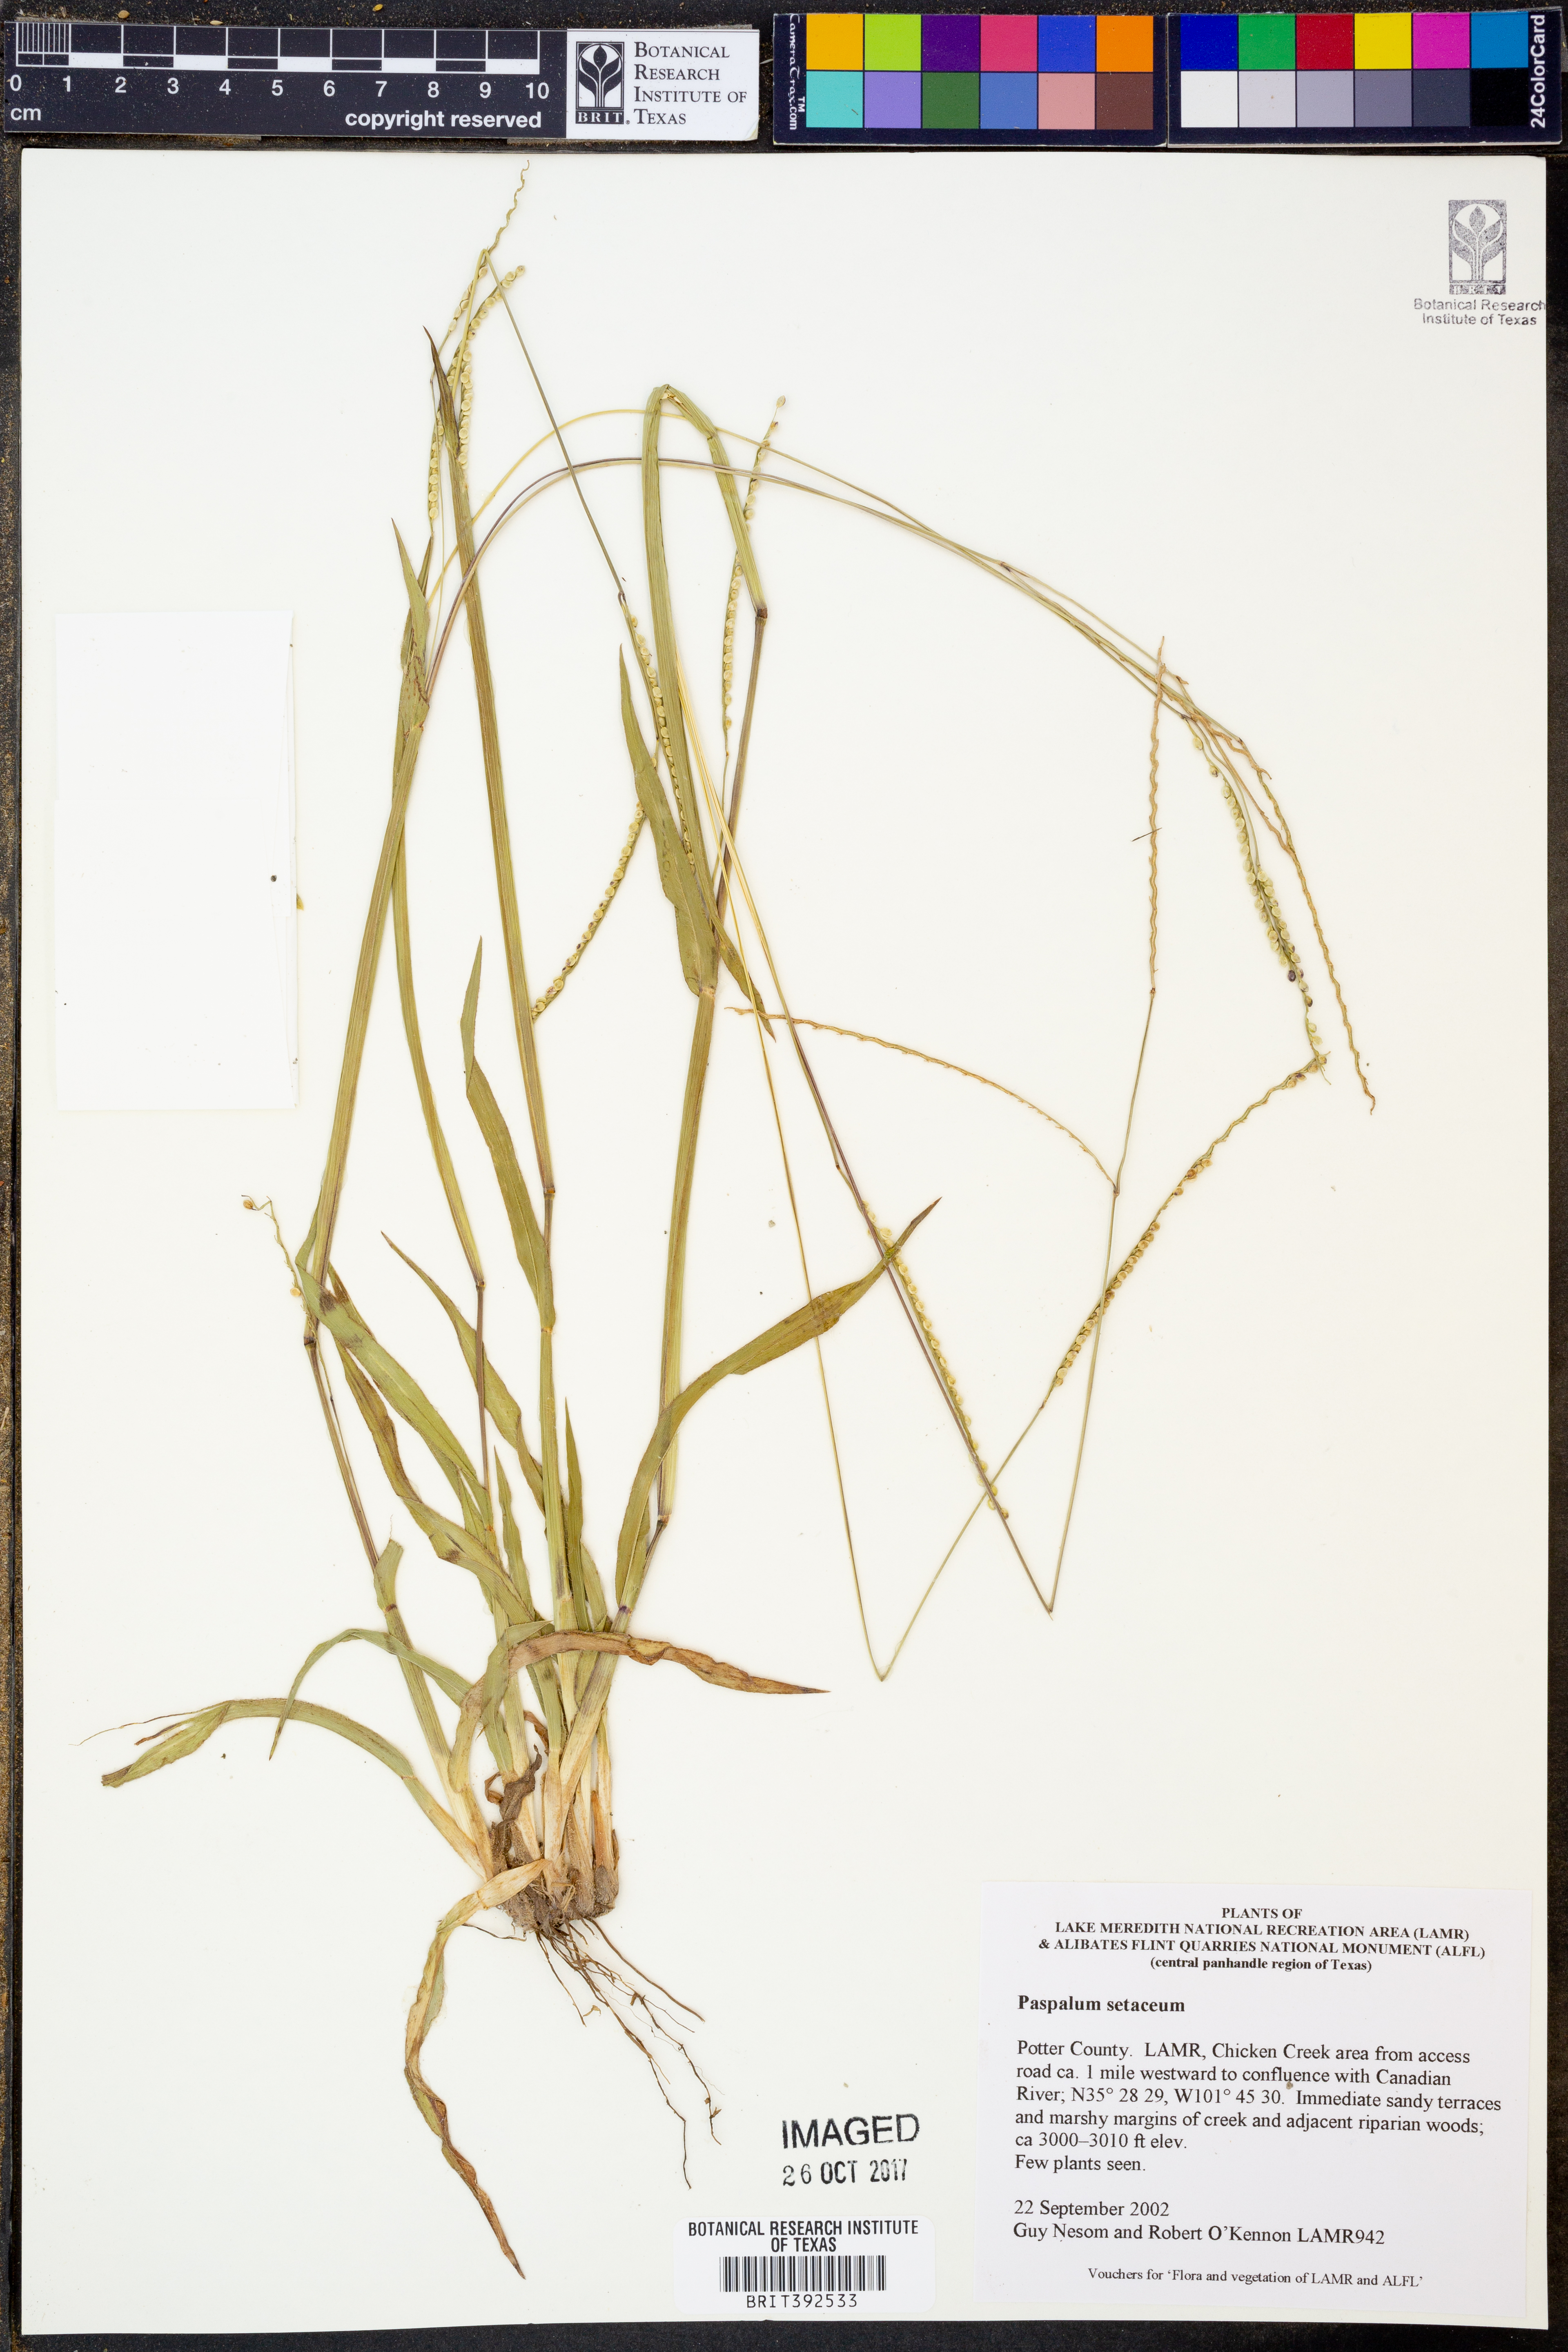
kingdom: Plantae
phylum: Tracheophyta
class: Liliopsida
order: Poales
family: Poaceae
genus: Paspalum
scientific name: Paspalum setaceum
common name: Slender paspalum
